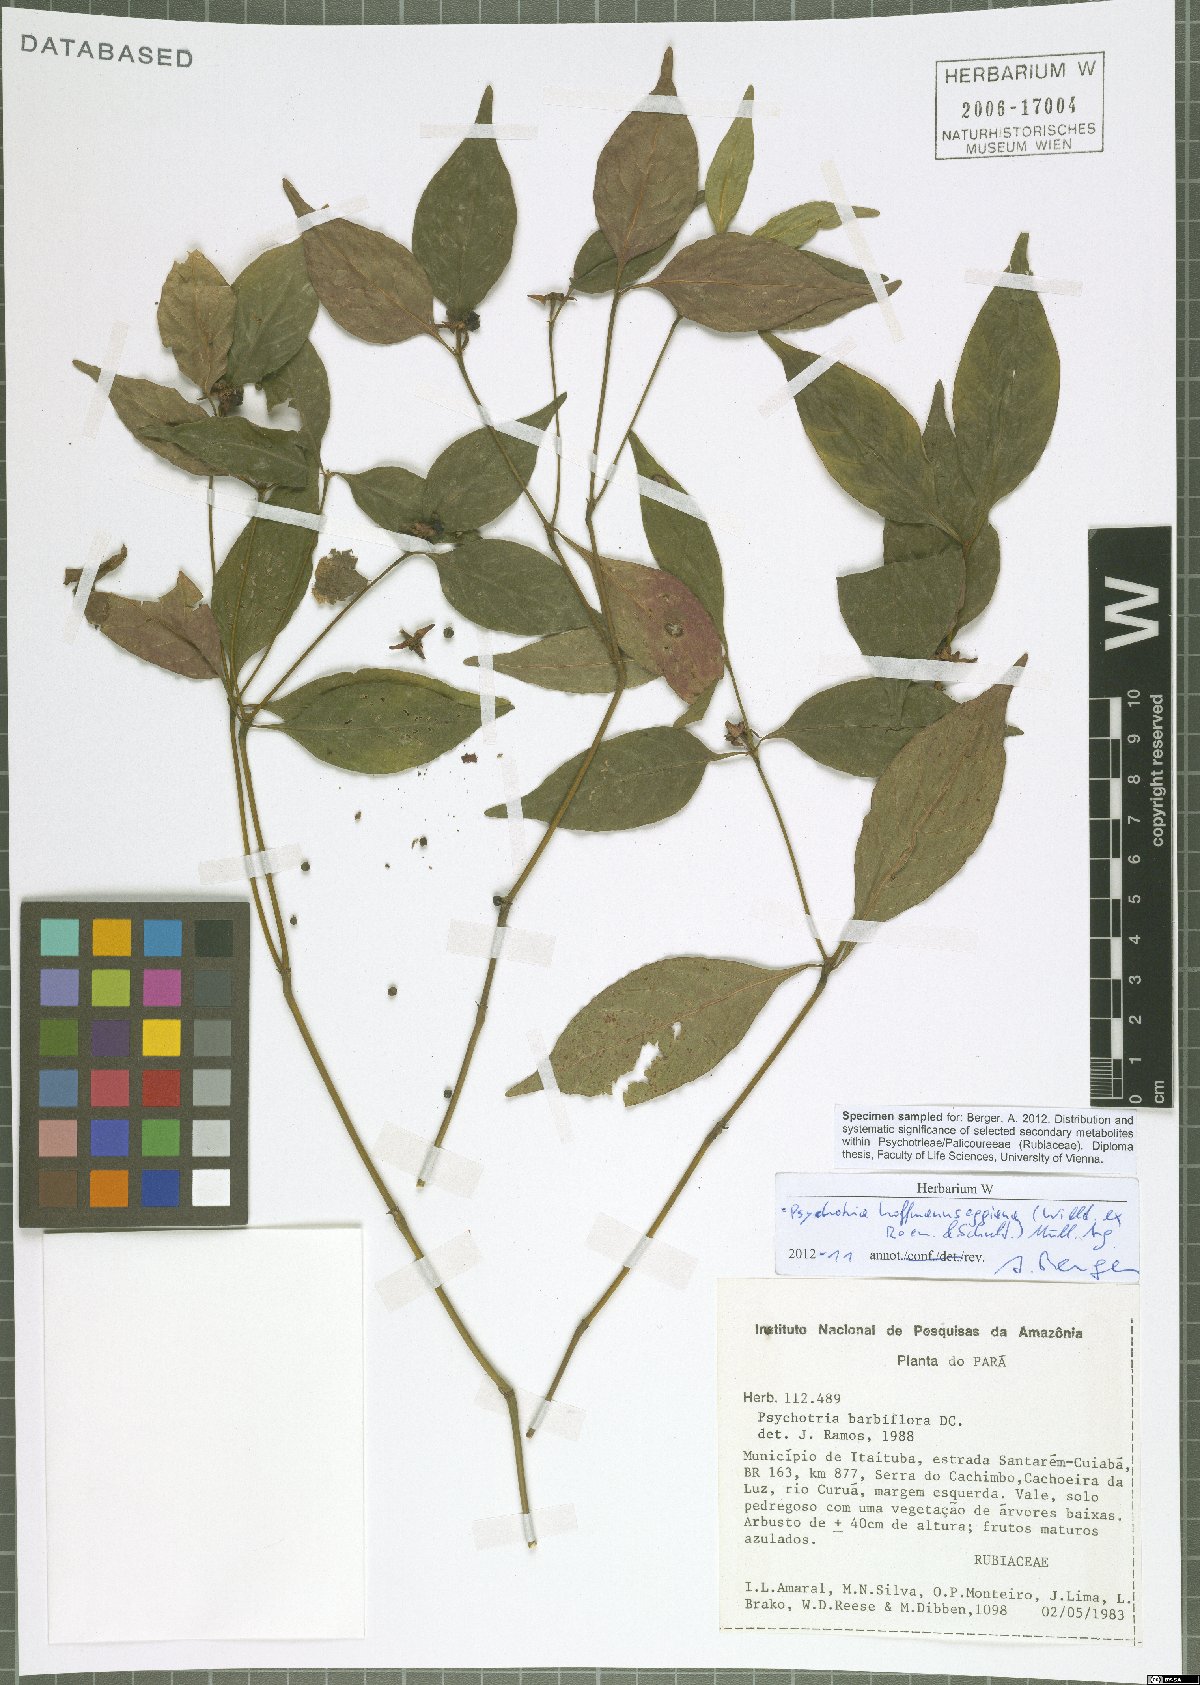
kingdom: Plantae
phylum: Tracheophyta
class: Magnoliopsida
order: Gentianales
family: Rubiaceae
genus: Palicourea
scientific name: Palicourea hoffmannseggiana
